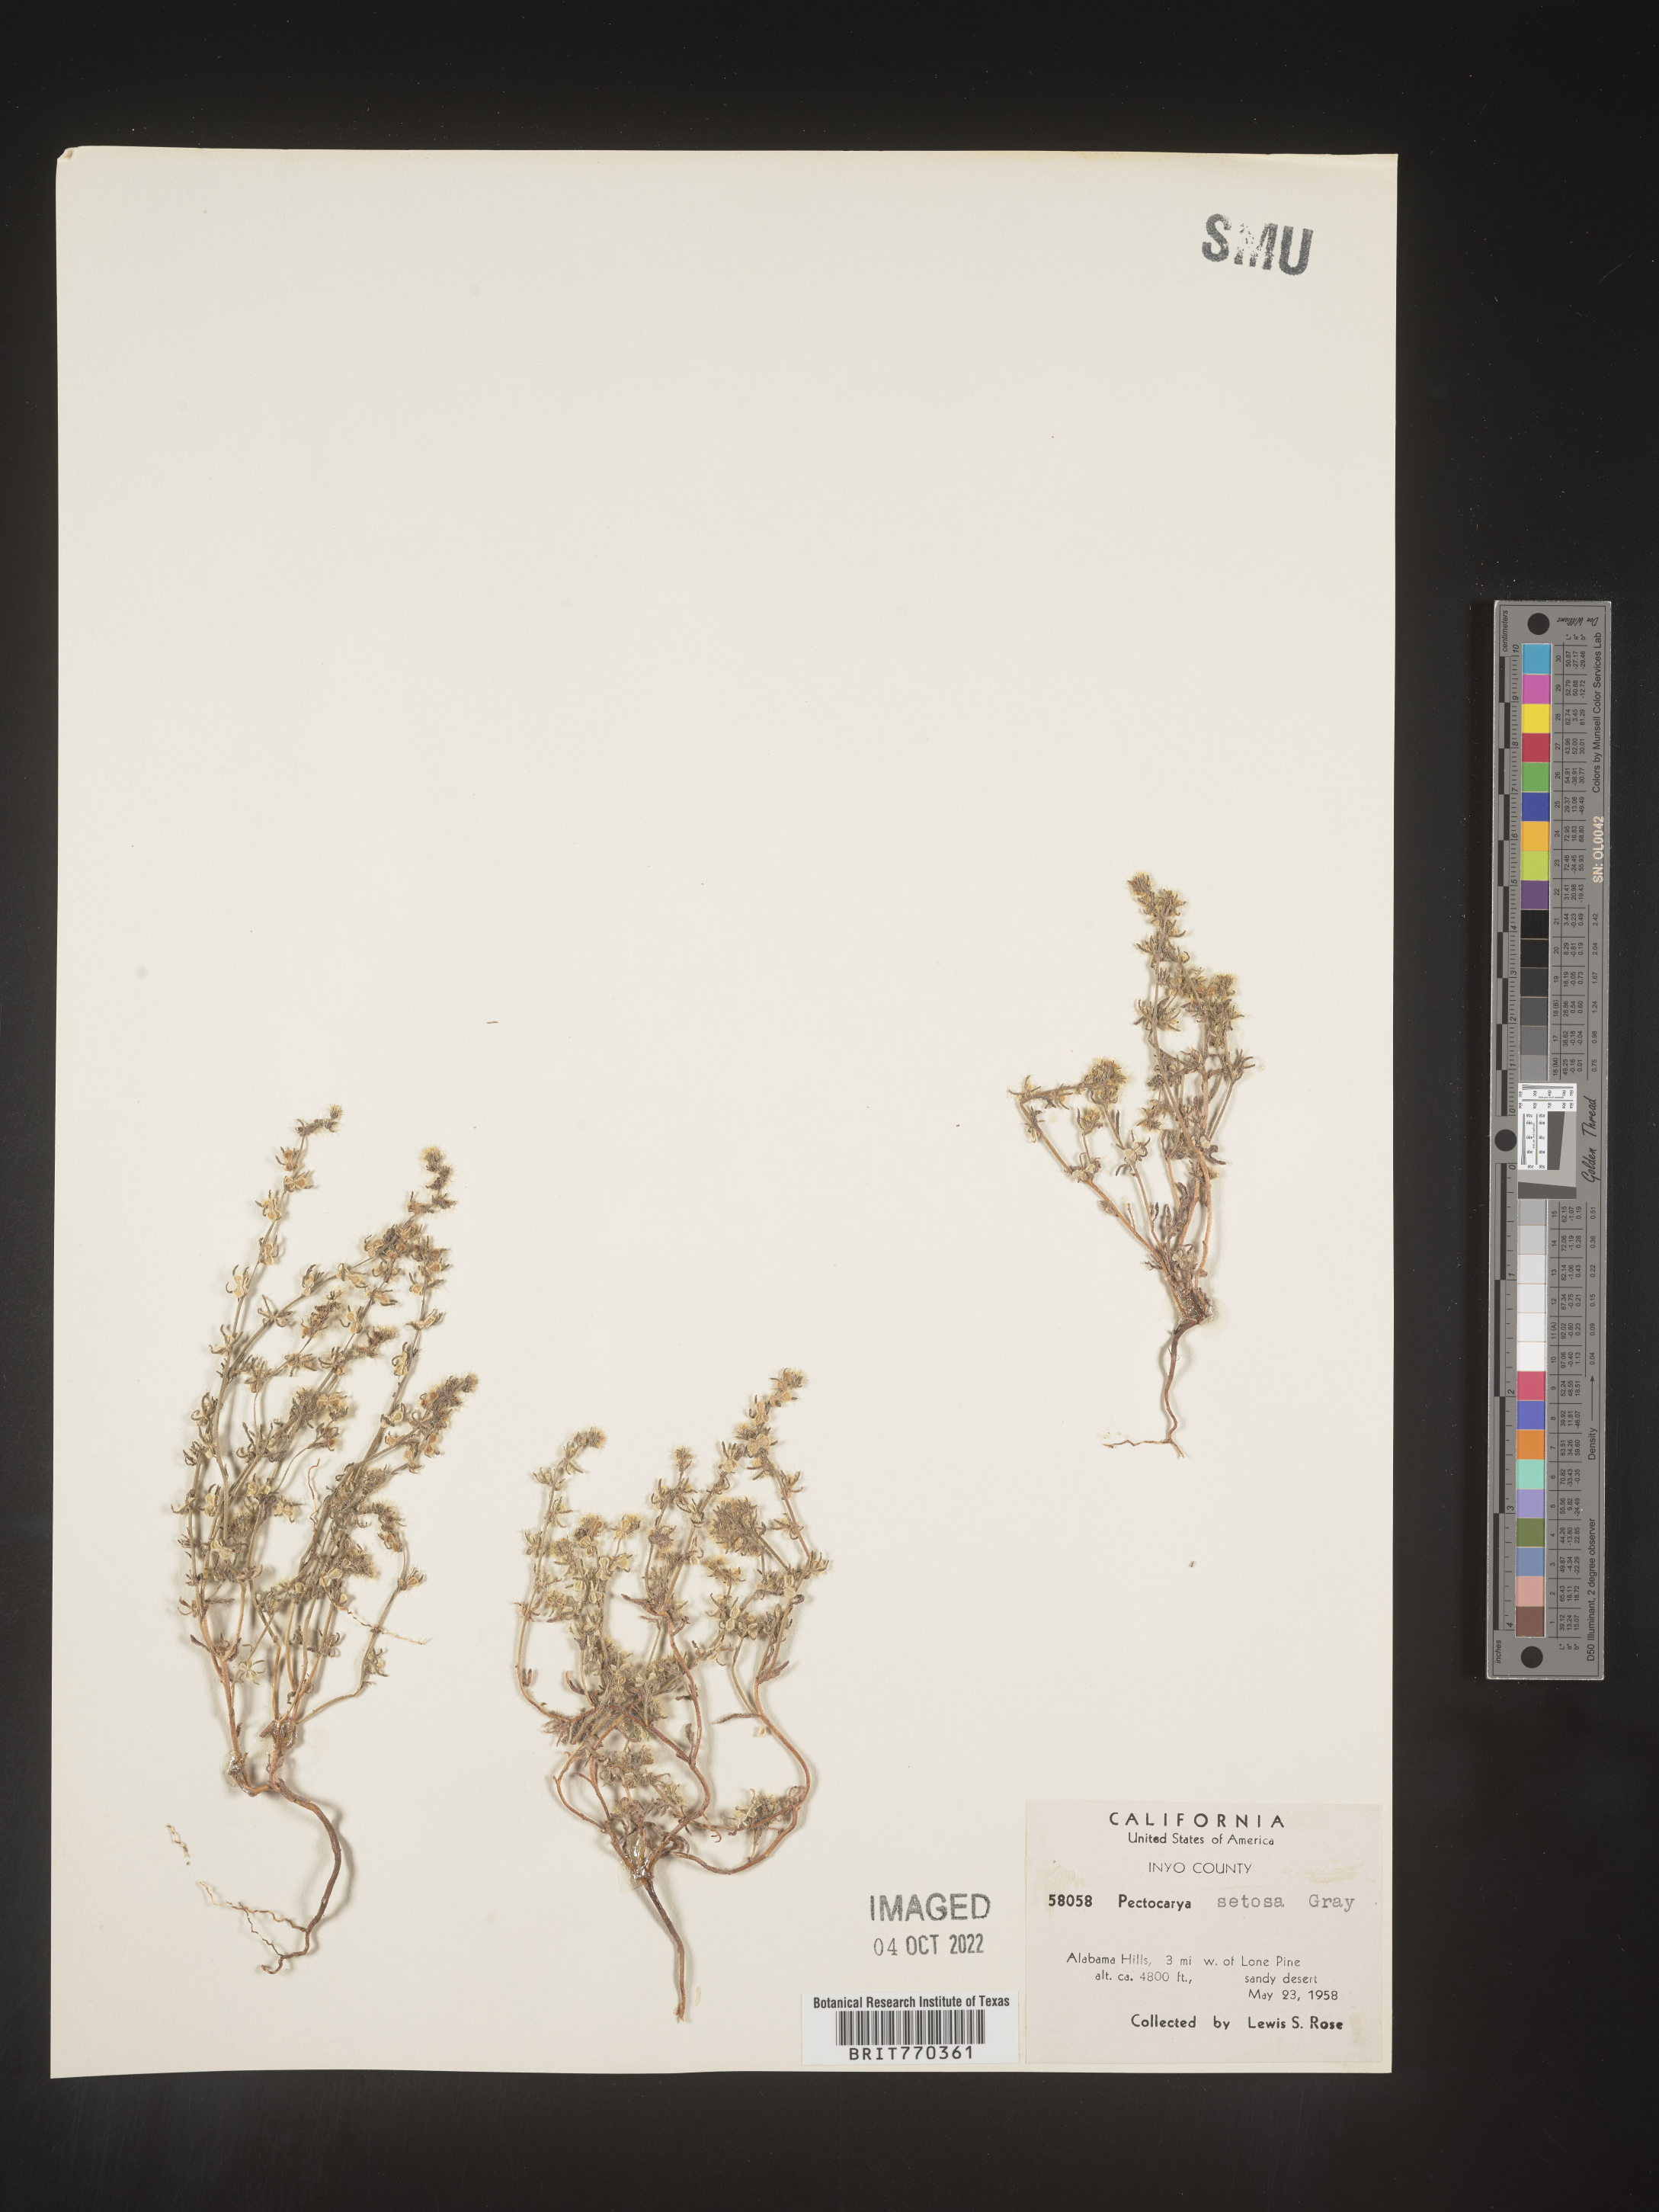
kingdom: Plantae
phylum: Tracheophyta
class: Magnoliopsida
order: Boraginales
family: Boraginaceae
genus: Pectocarya
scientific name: Pectocarya
